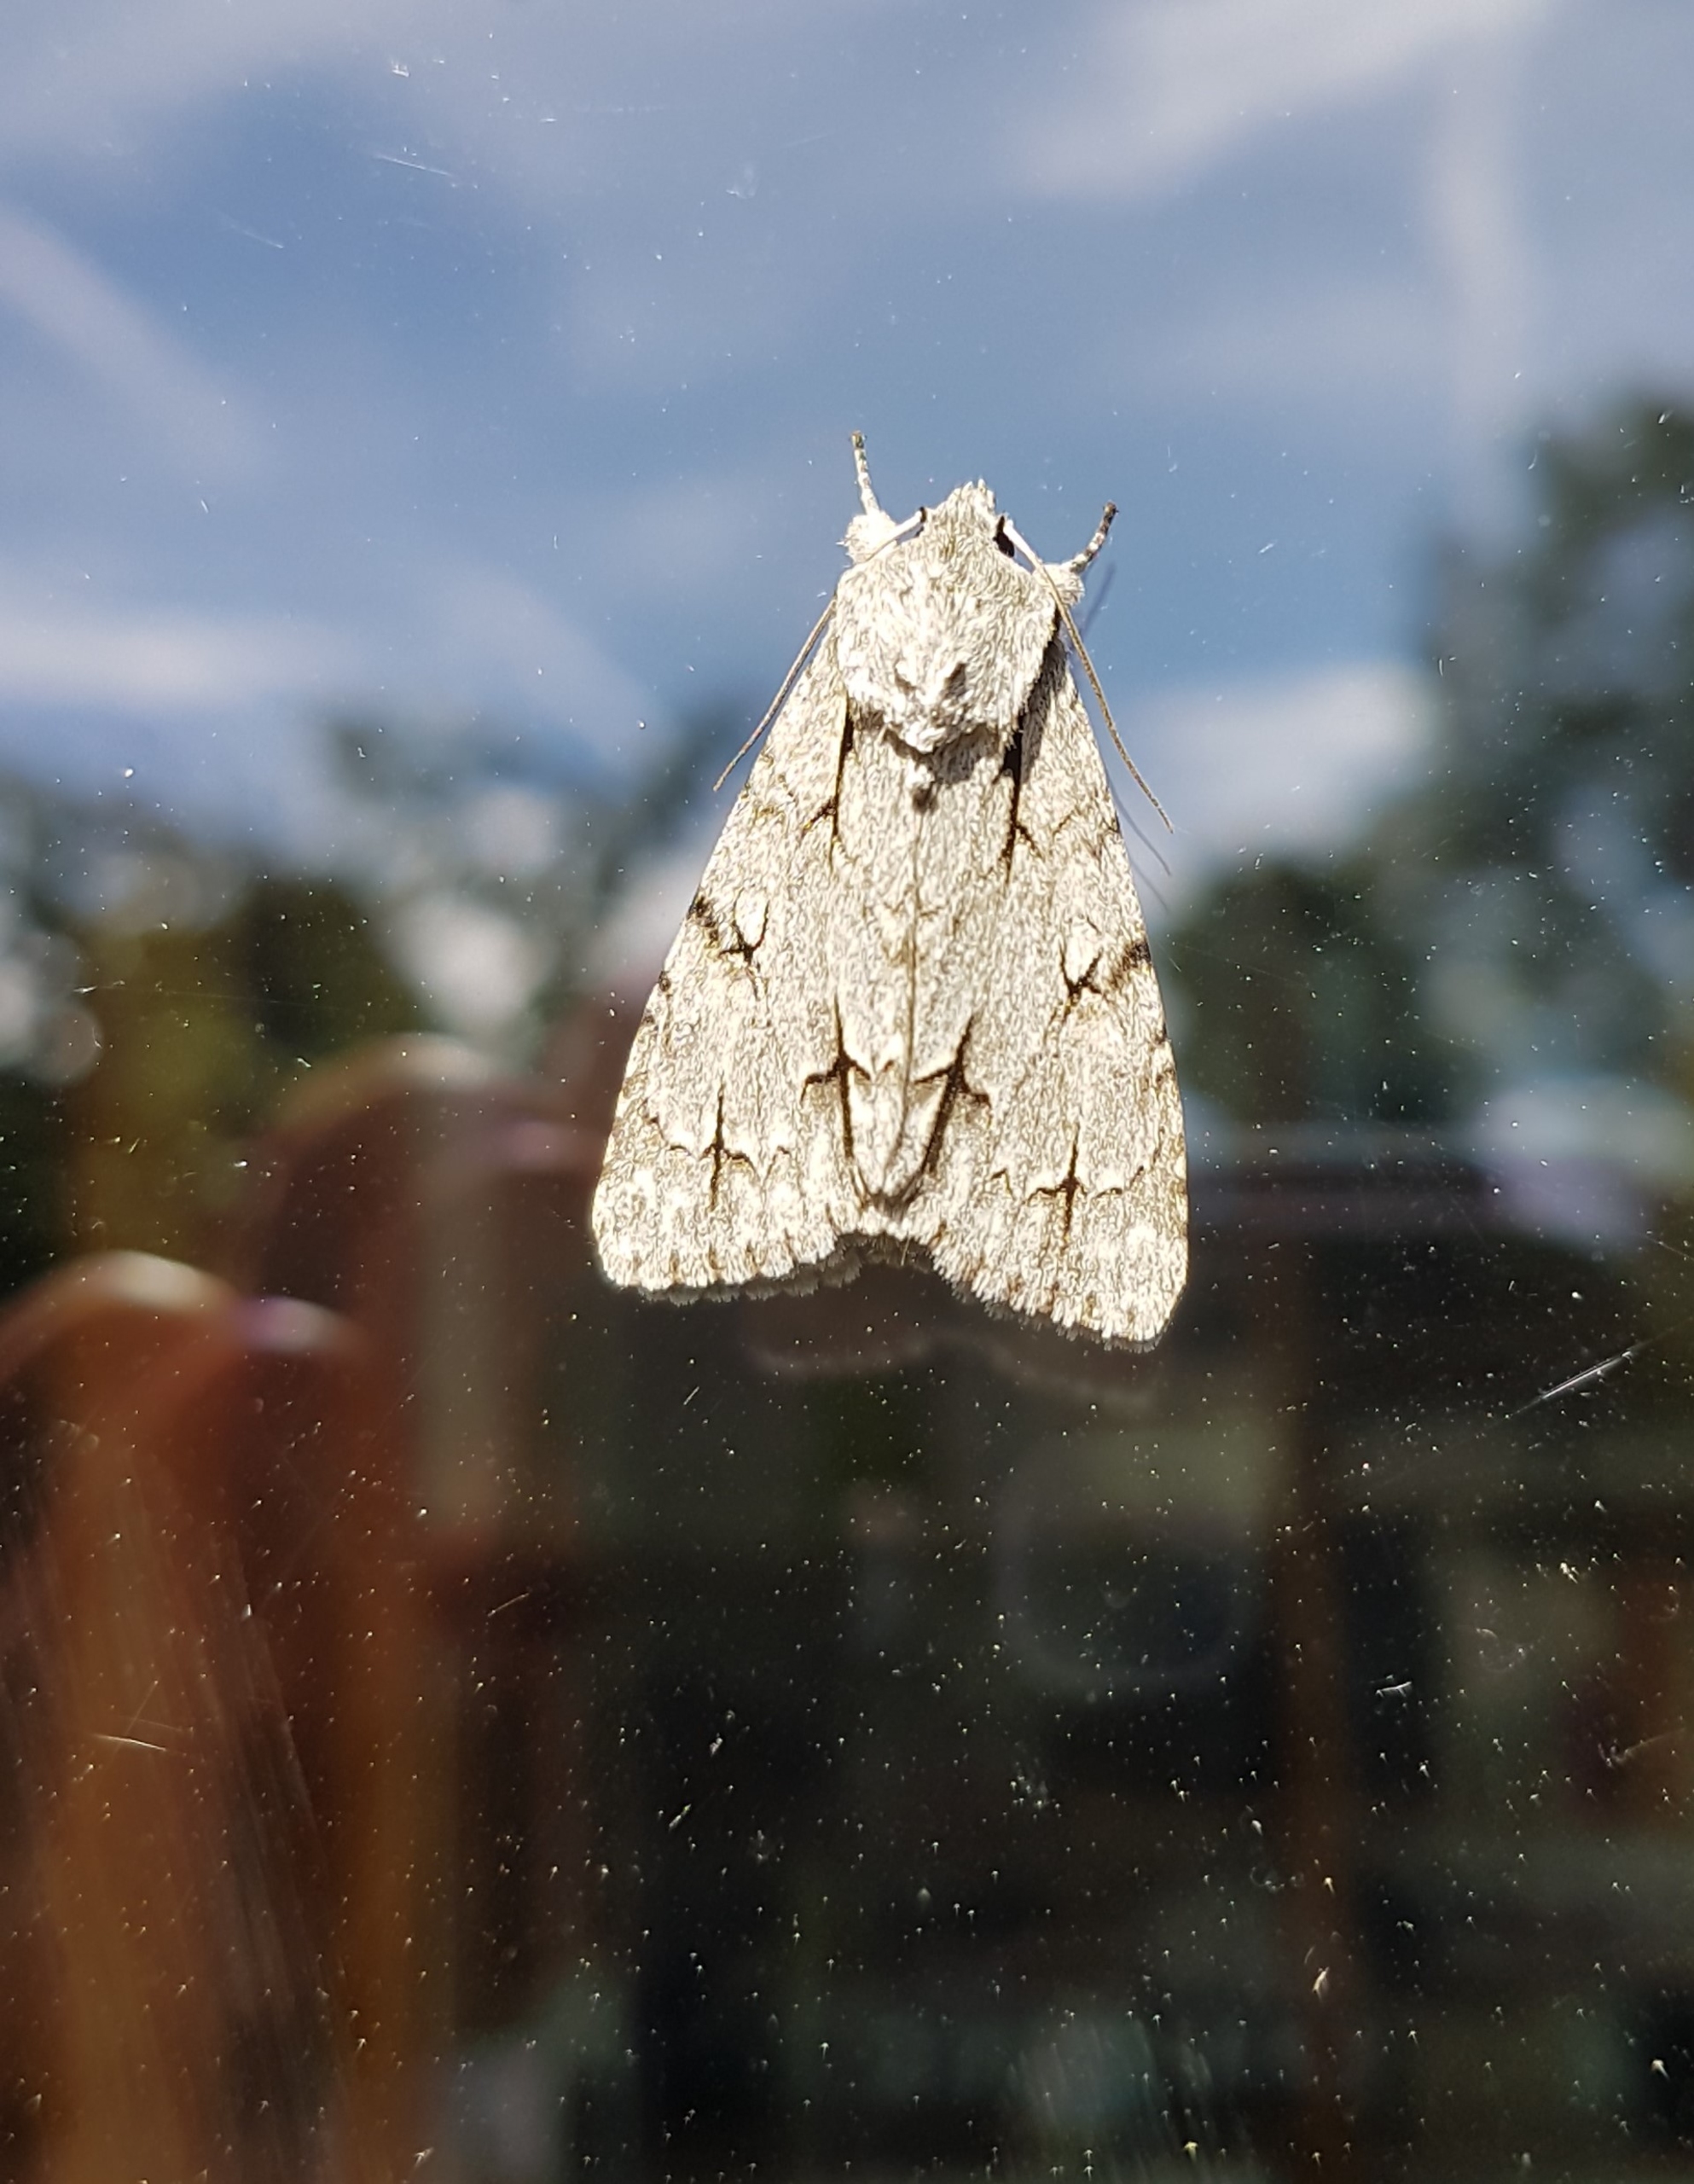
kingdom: Animalia
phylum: Arthropoda
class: Insecta
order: Lepidoptera
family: Noctuidae
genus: Acronicta
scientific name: Acronicta psi
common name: Psi-ugle
